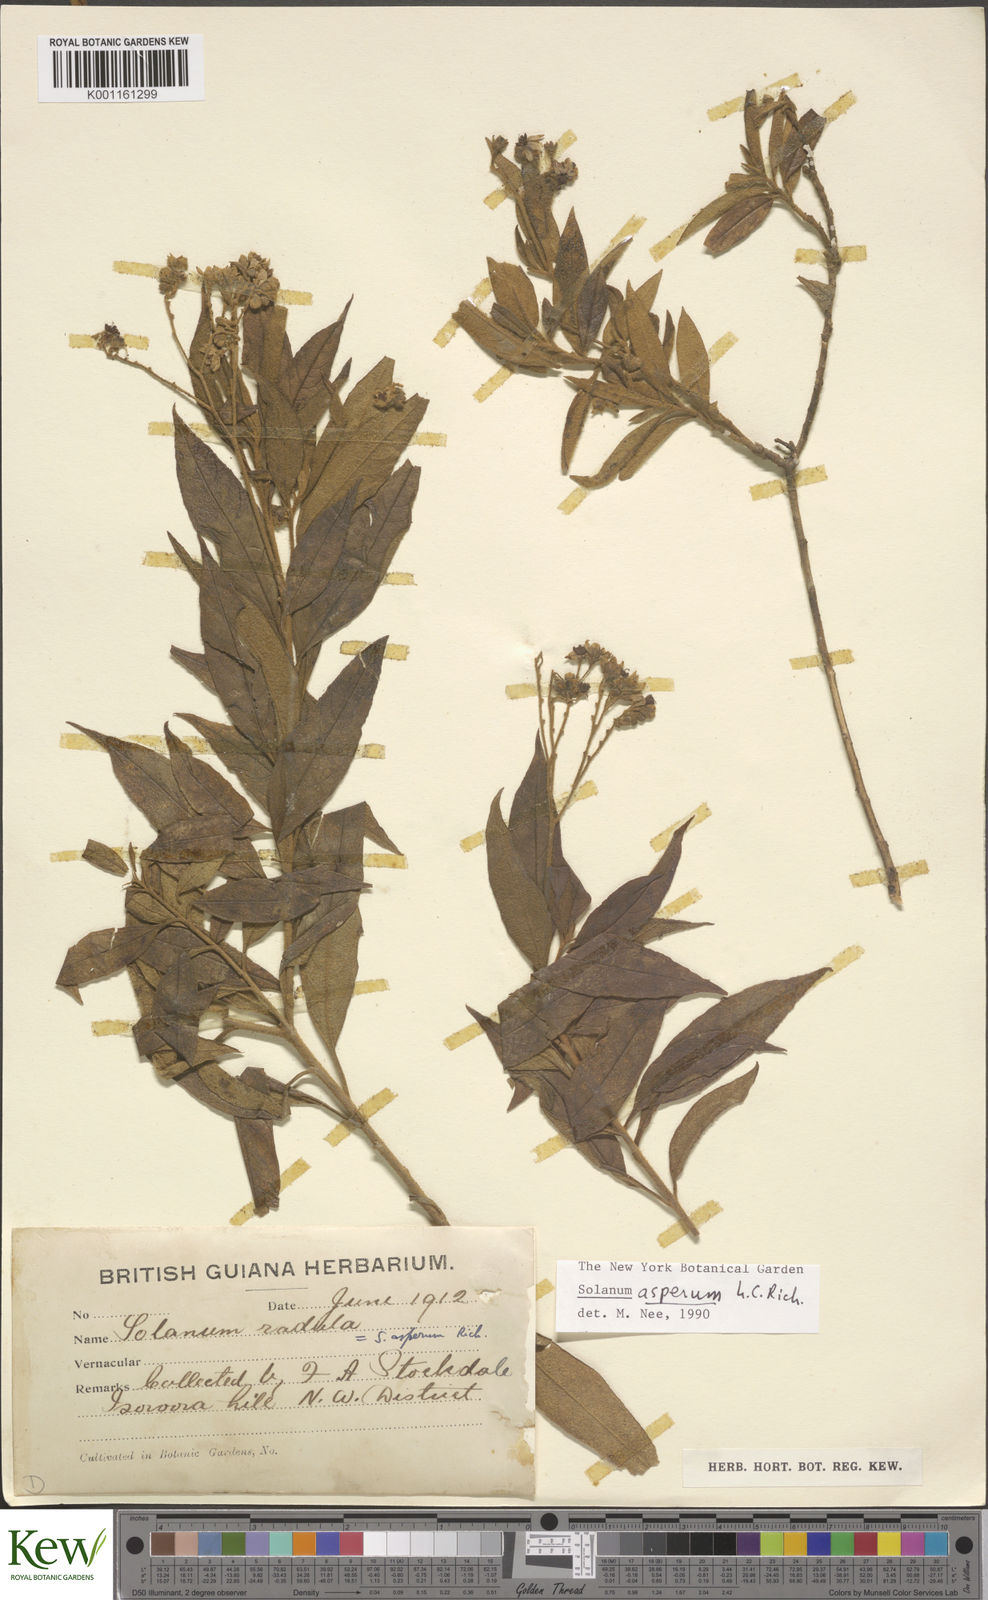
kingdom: Plantae
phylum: Tracheophyta
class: Magnoliopsida
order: Solanales
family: Solanaceae
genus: Solanum
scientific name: Solanum asperum
